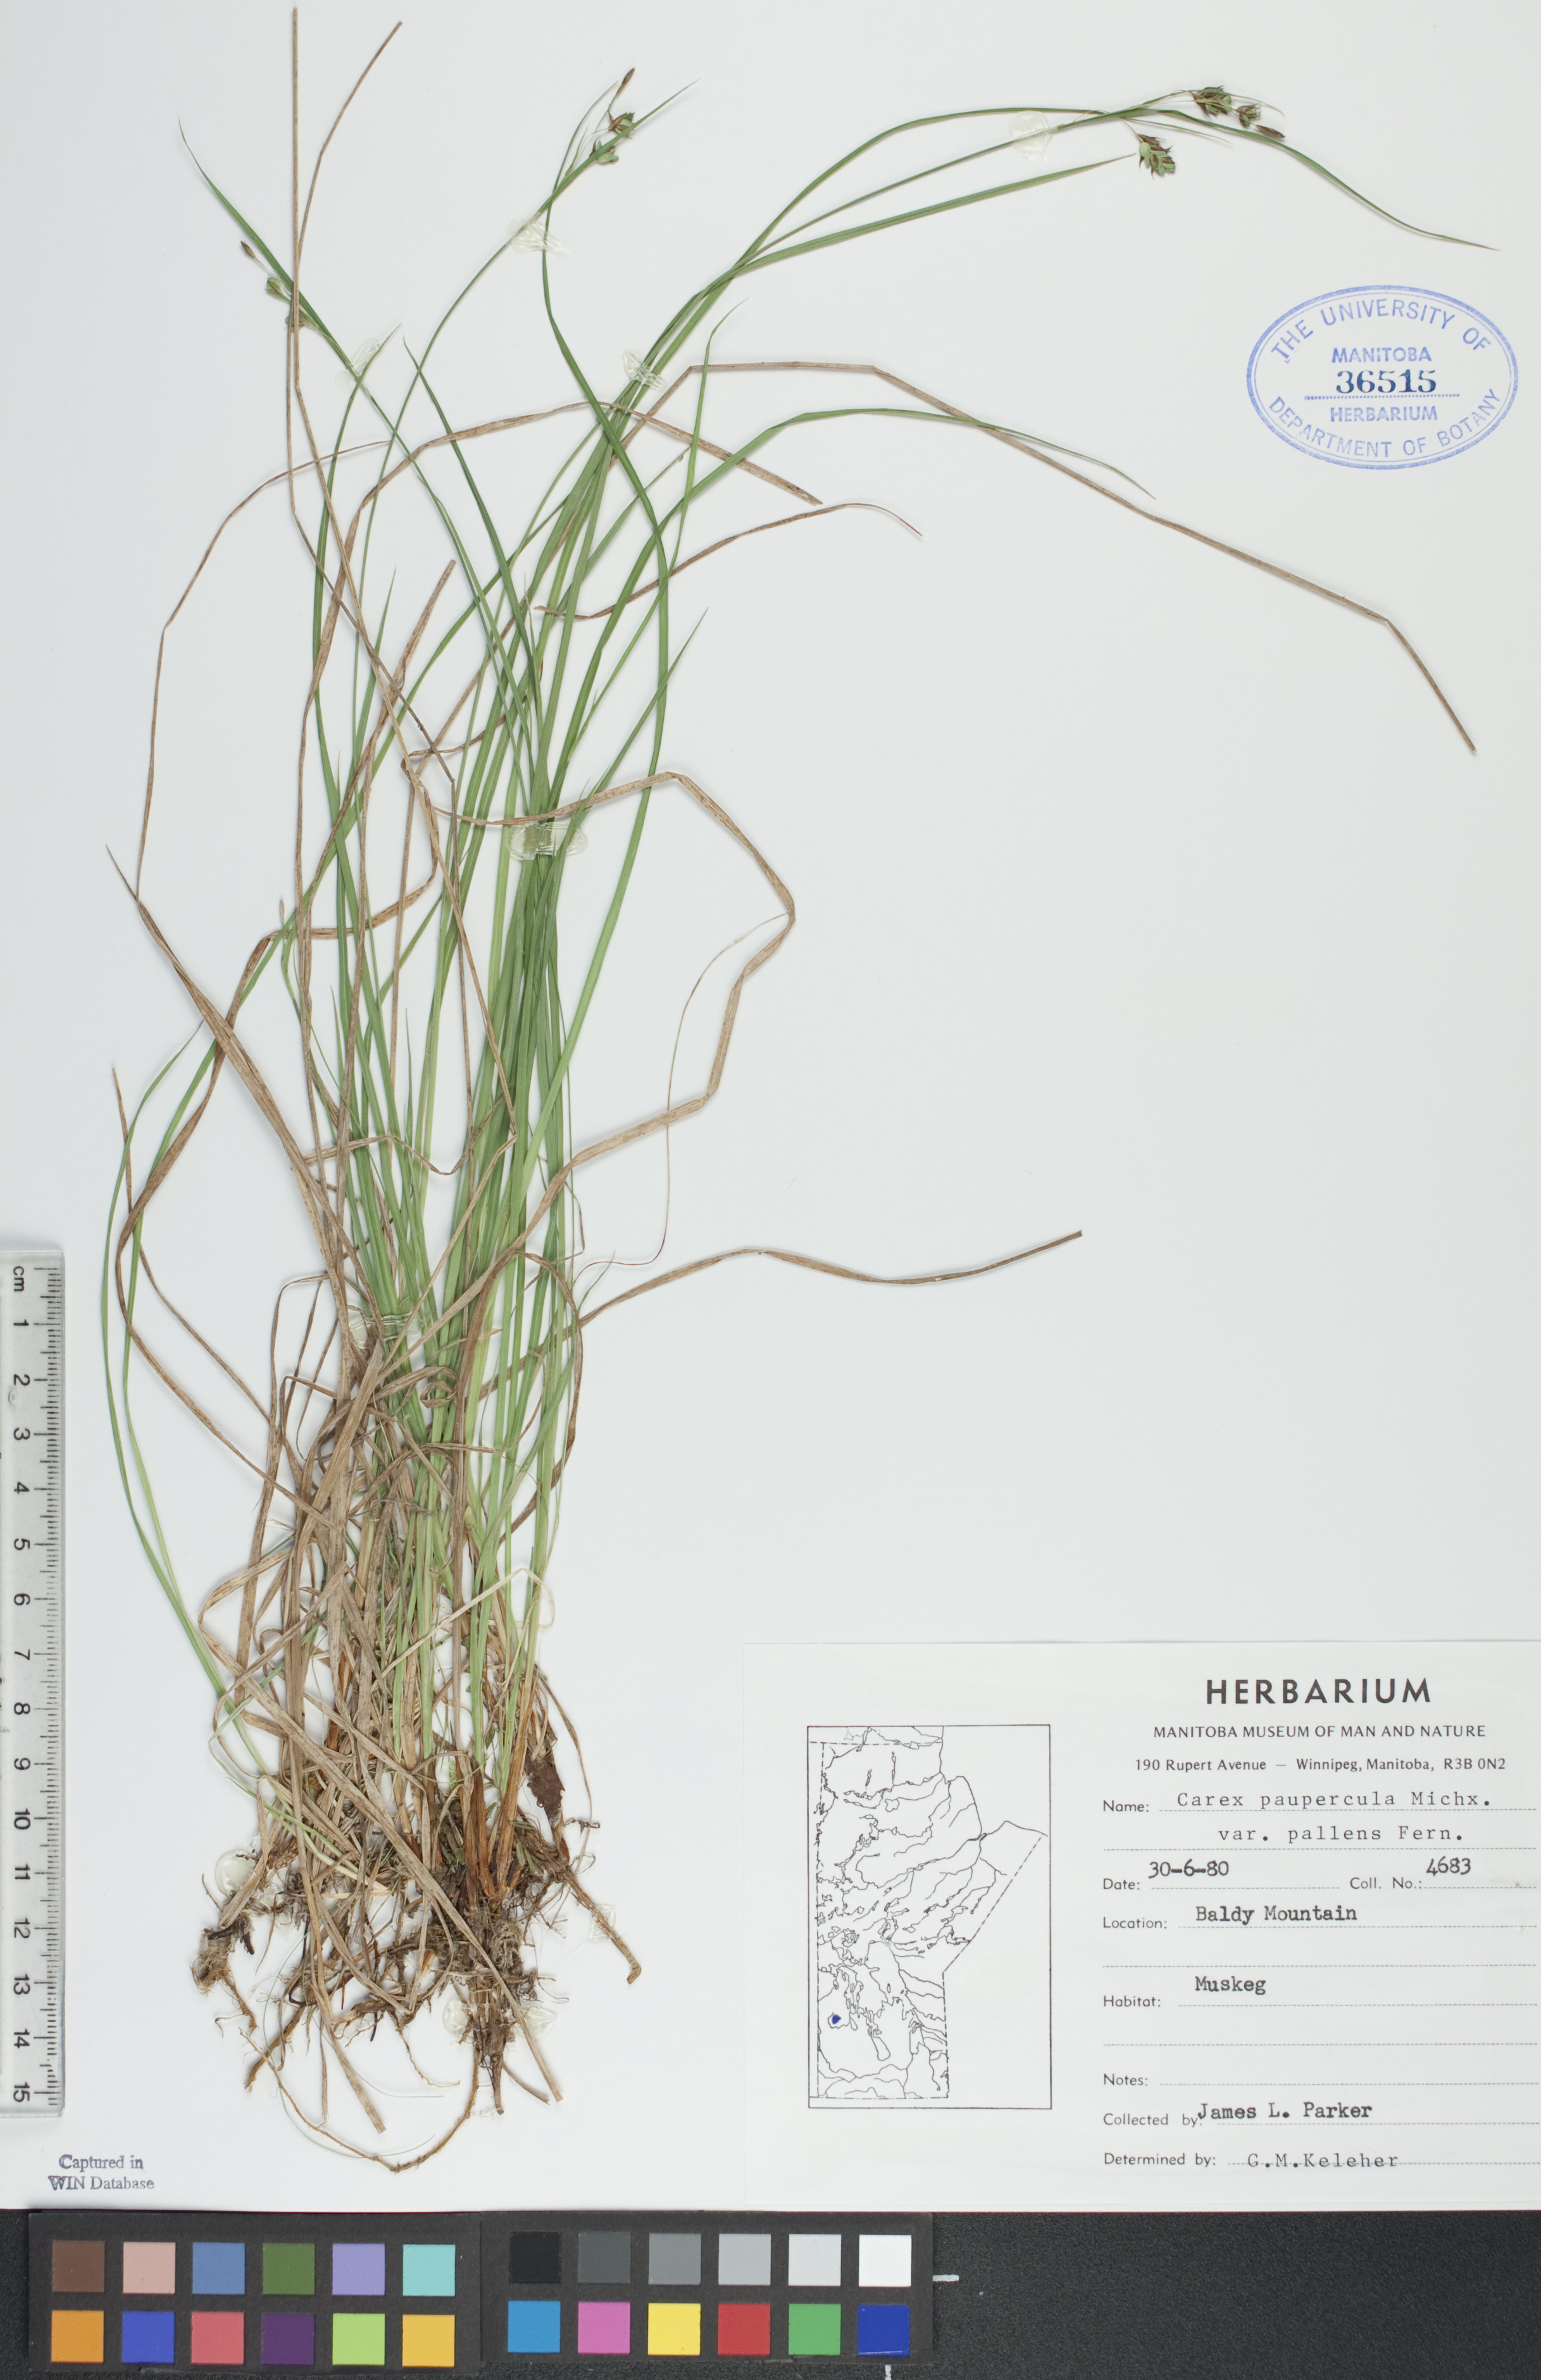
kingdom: Plantae
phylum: Tracheophyta
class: Liliopsida
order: Poales
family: Cyperaceae
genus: Carex
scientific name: Carex magellanica
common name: Bog sedge
